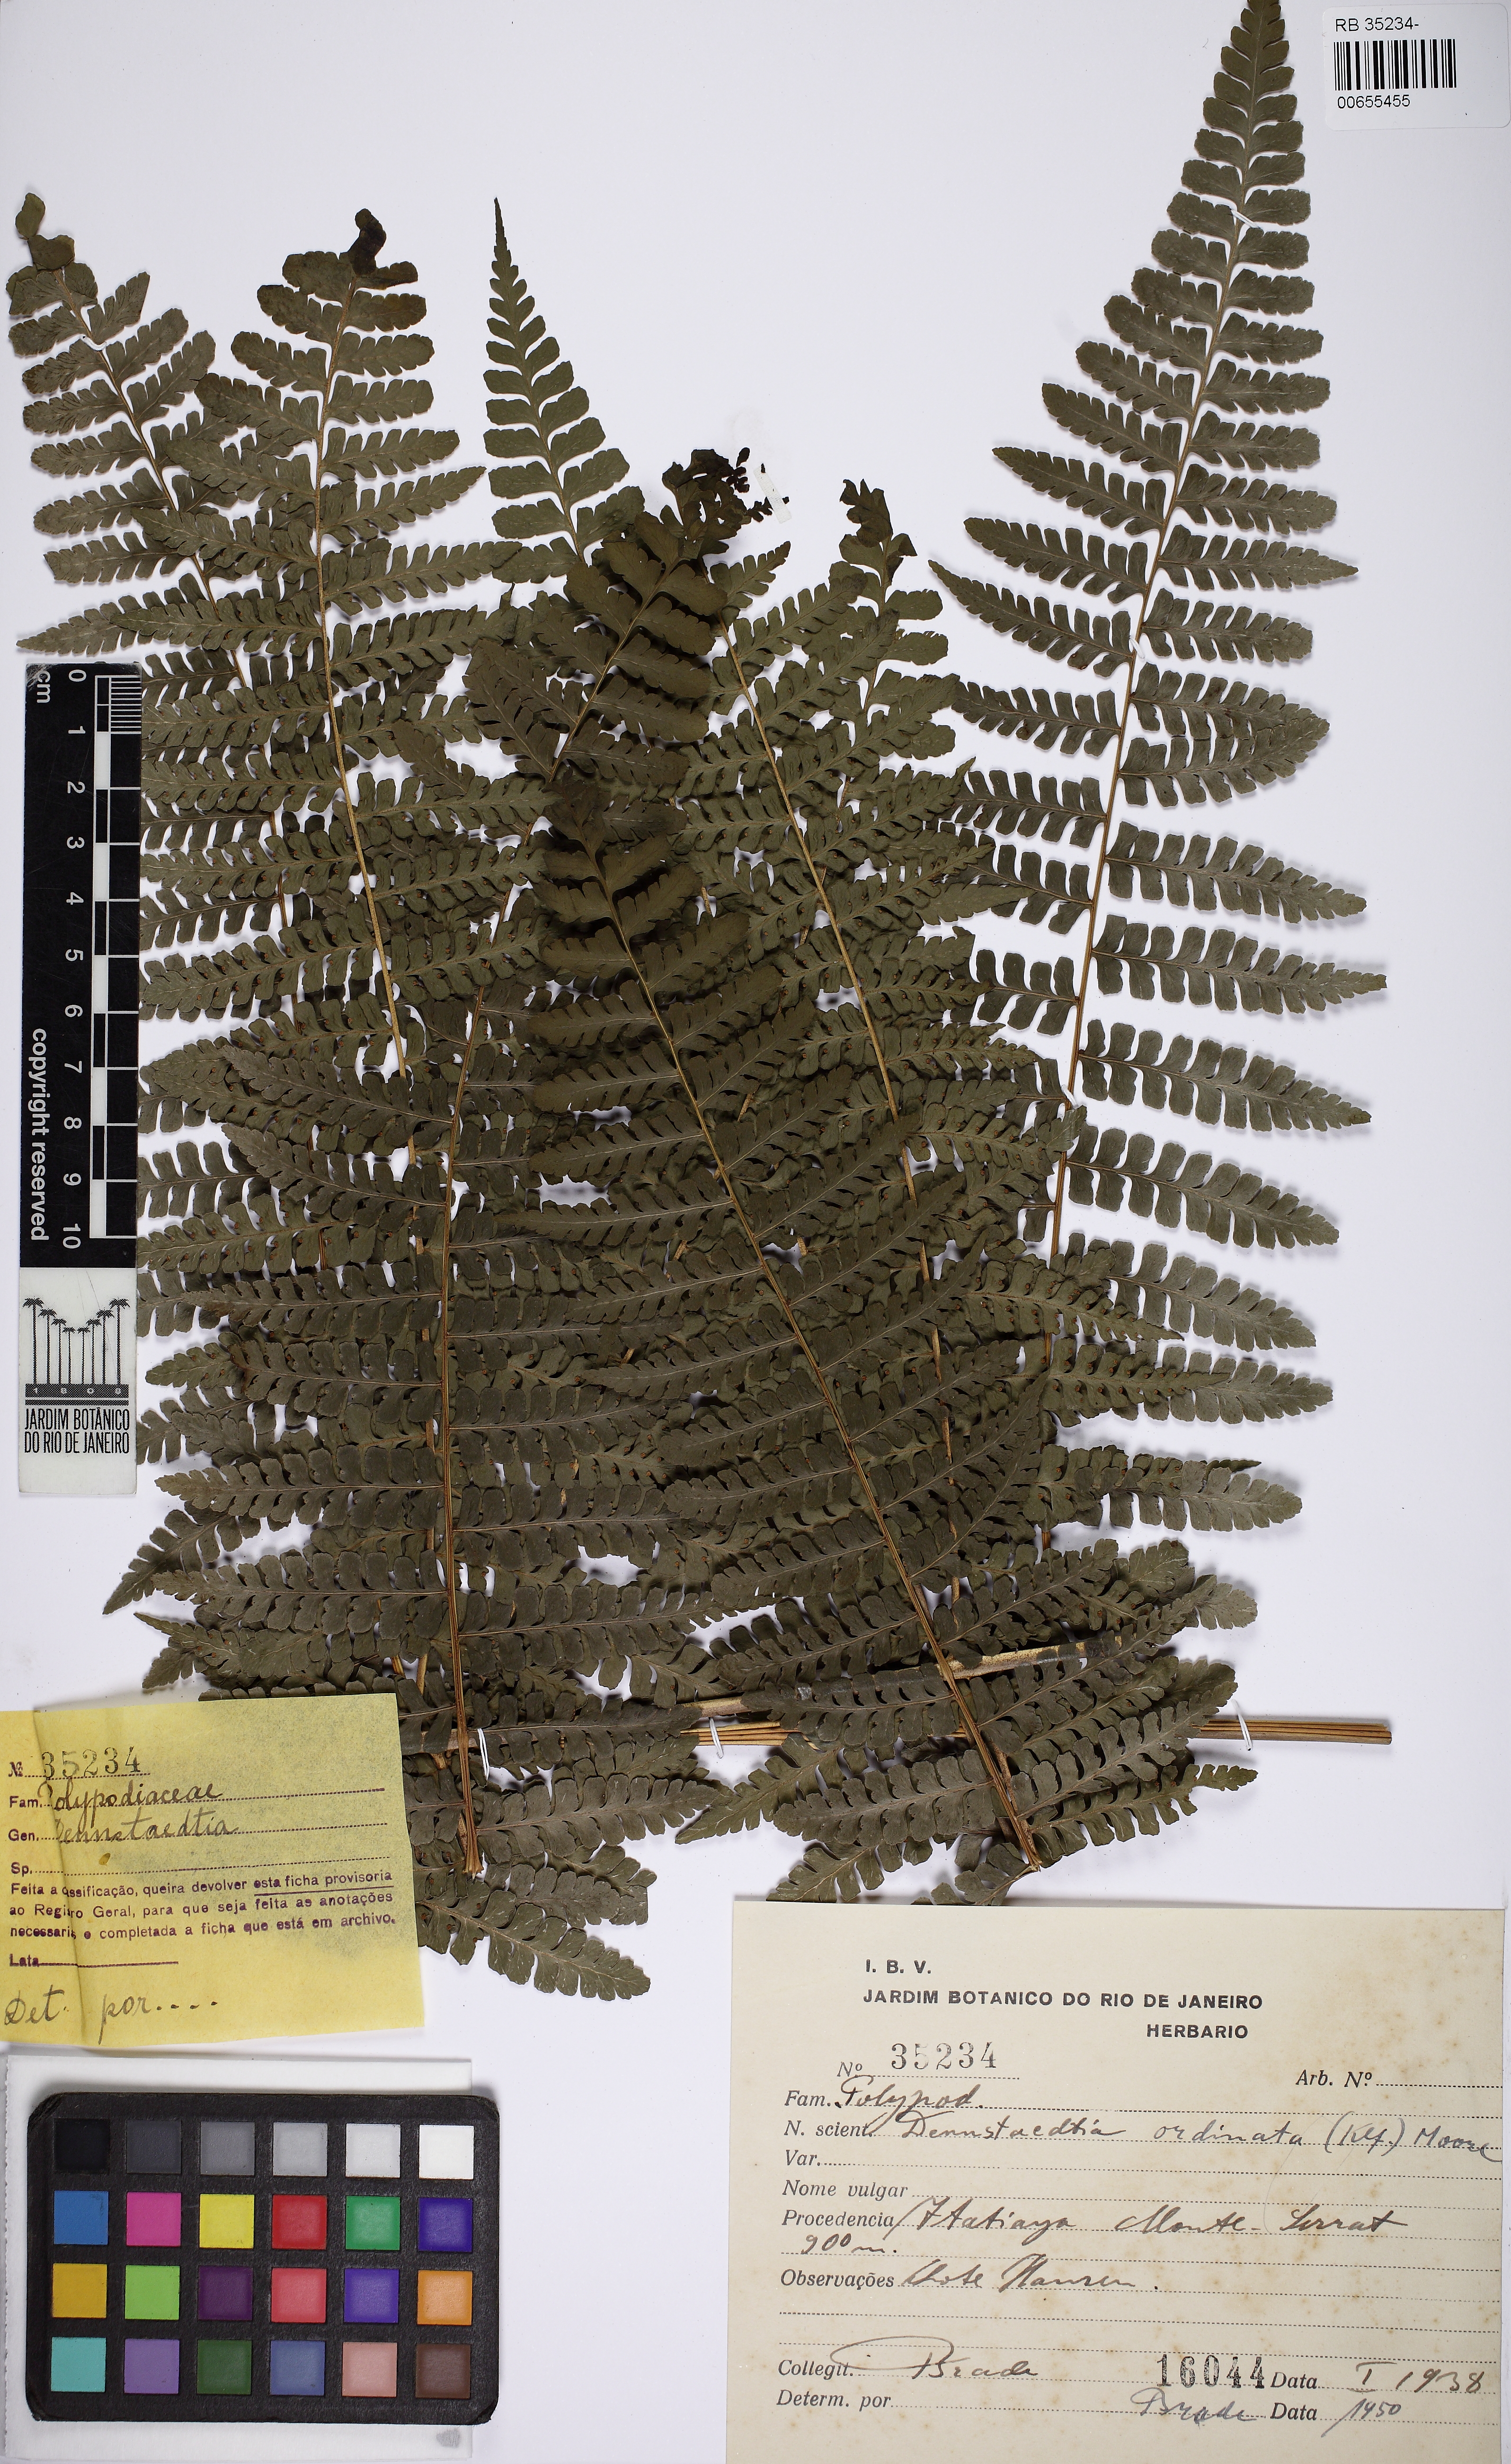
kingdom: Plantae
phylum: Tracheophyta
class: Polypodiopsida
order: Polypodiales
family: Dennstaedtiaceae
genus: Dennstaedtia
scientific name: Dennstaedtia cornuta
